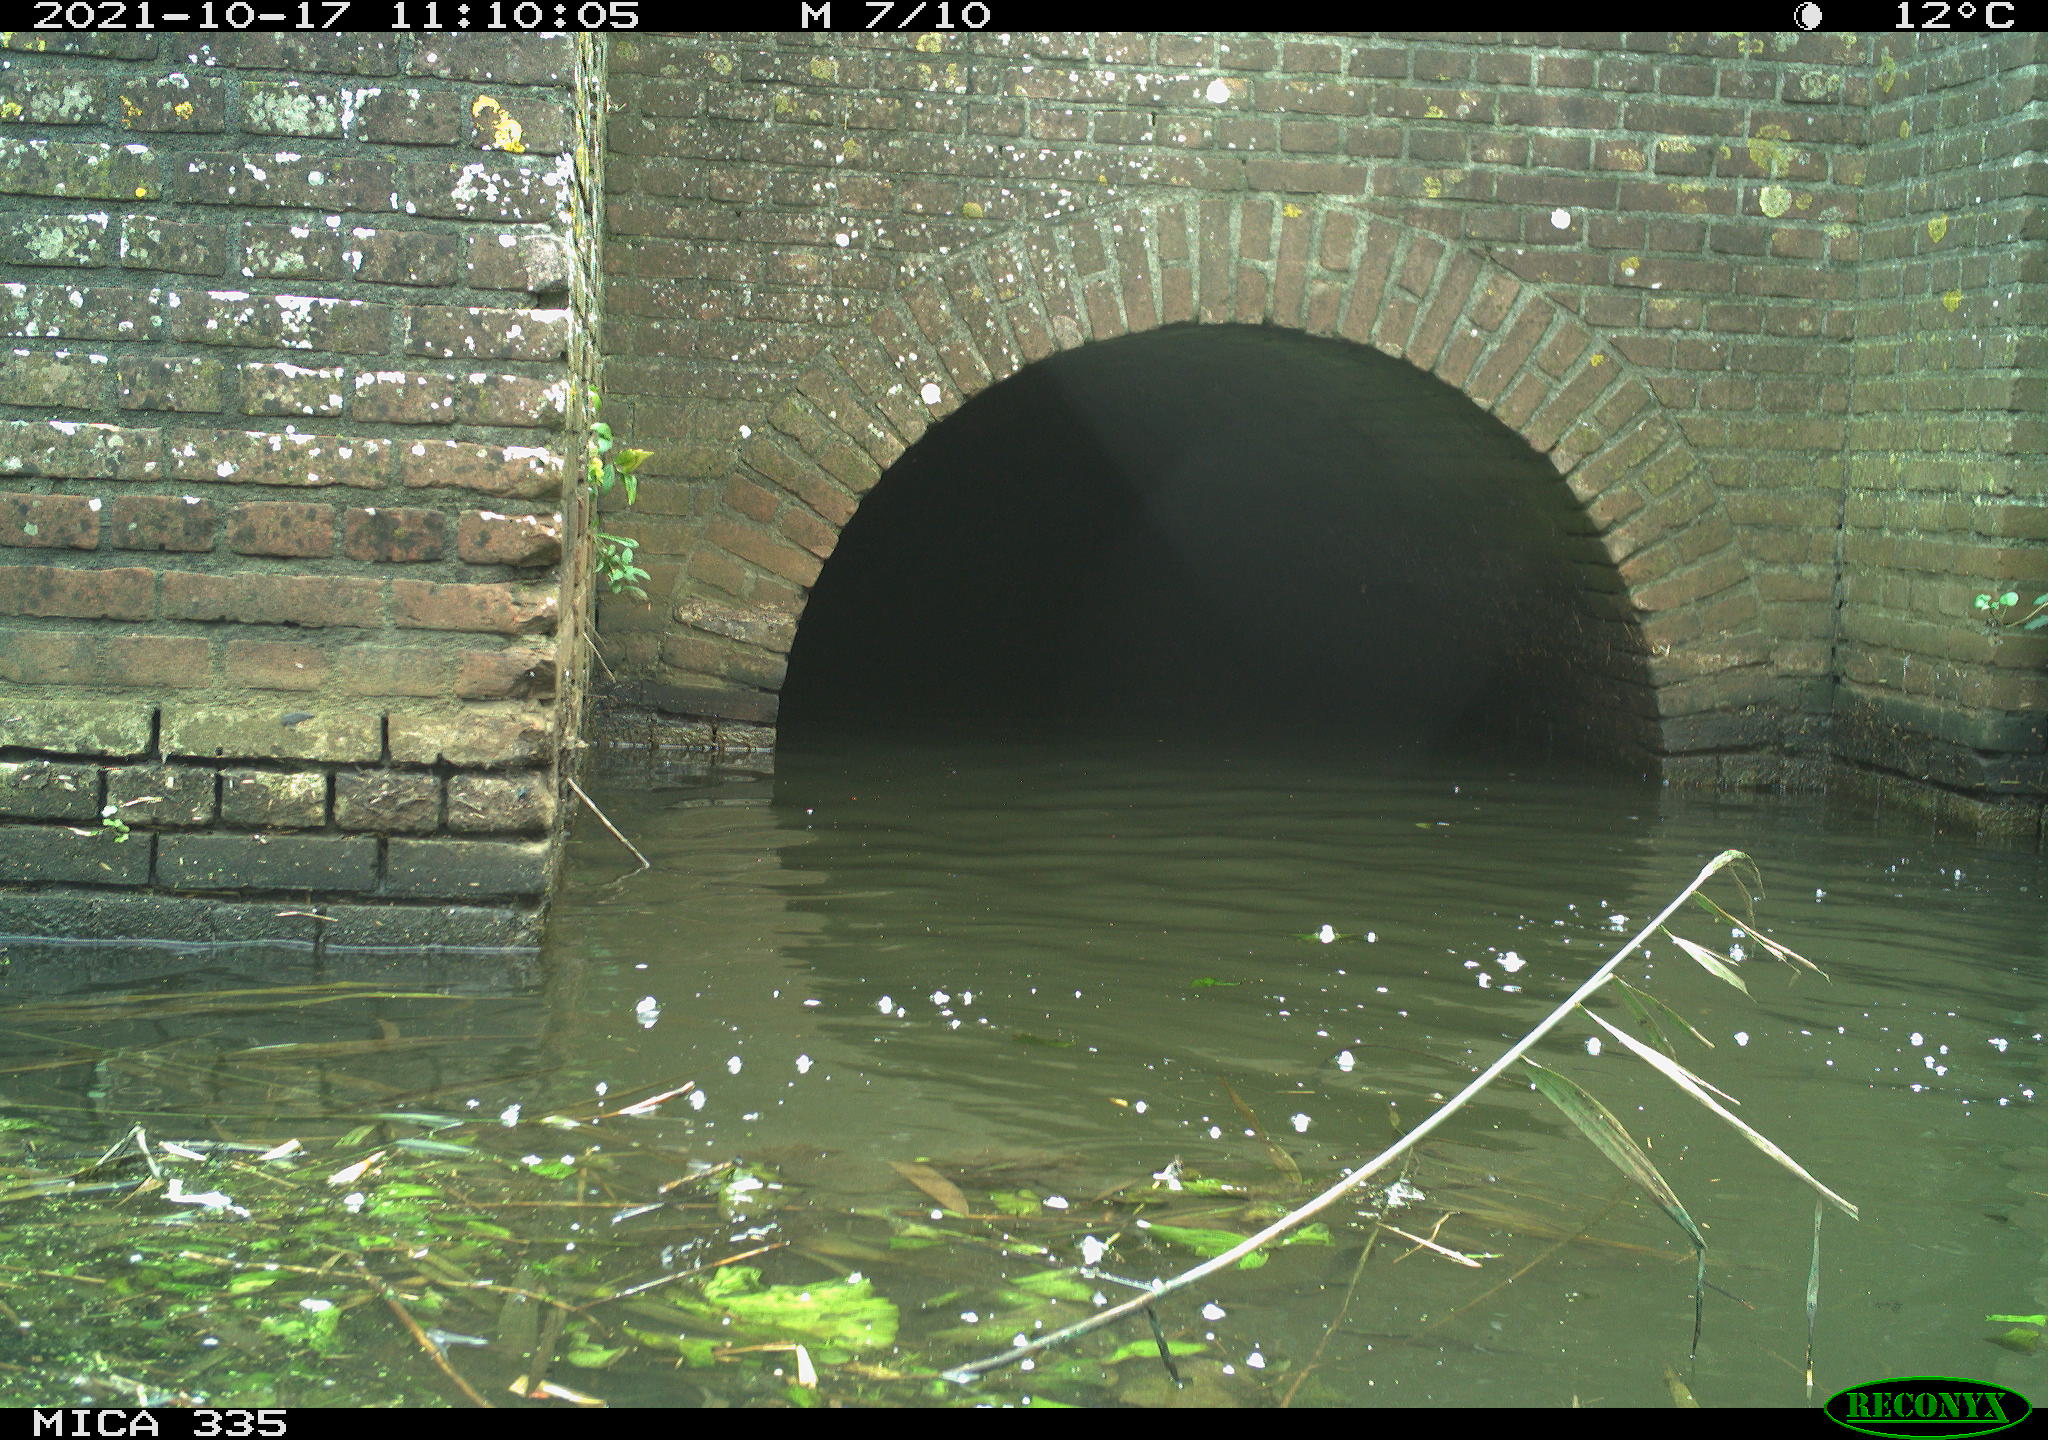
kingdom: Animalia
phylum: Chordata
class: Aves
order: Gruiformes
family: Rallidae
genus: Fulica
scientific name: Fulica atra
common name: Eurasian coot
